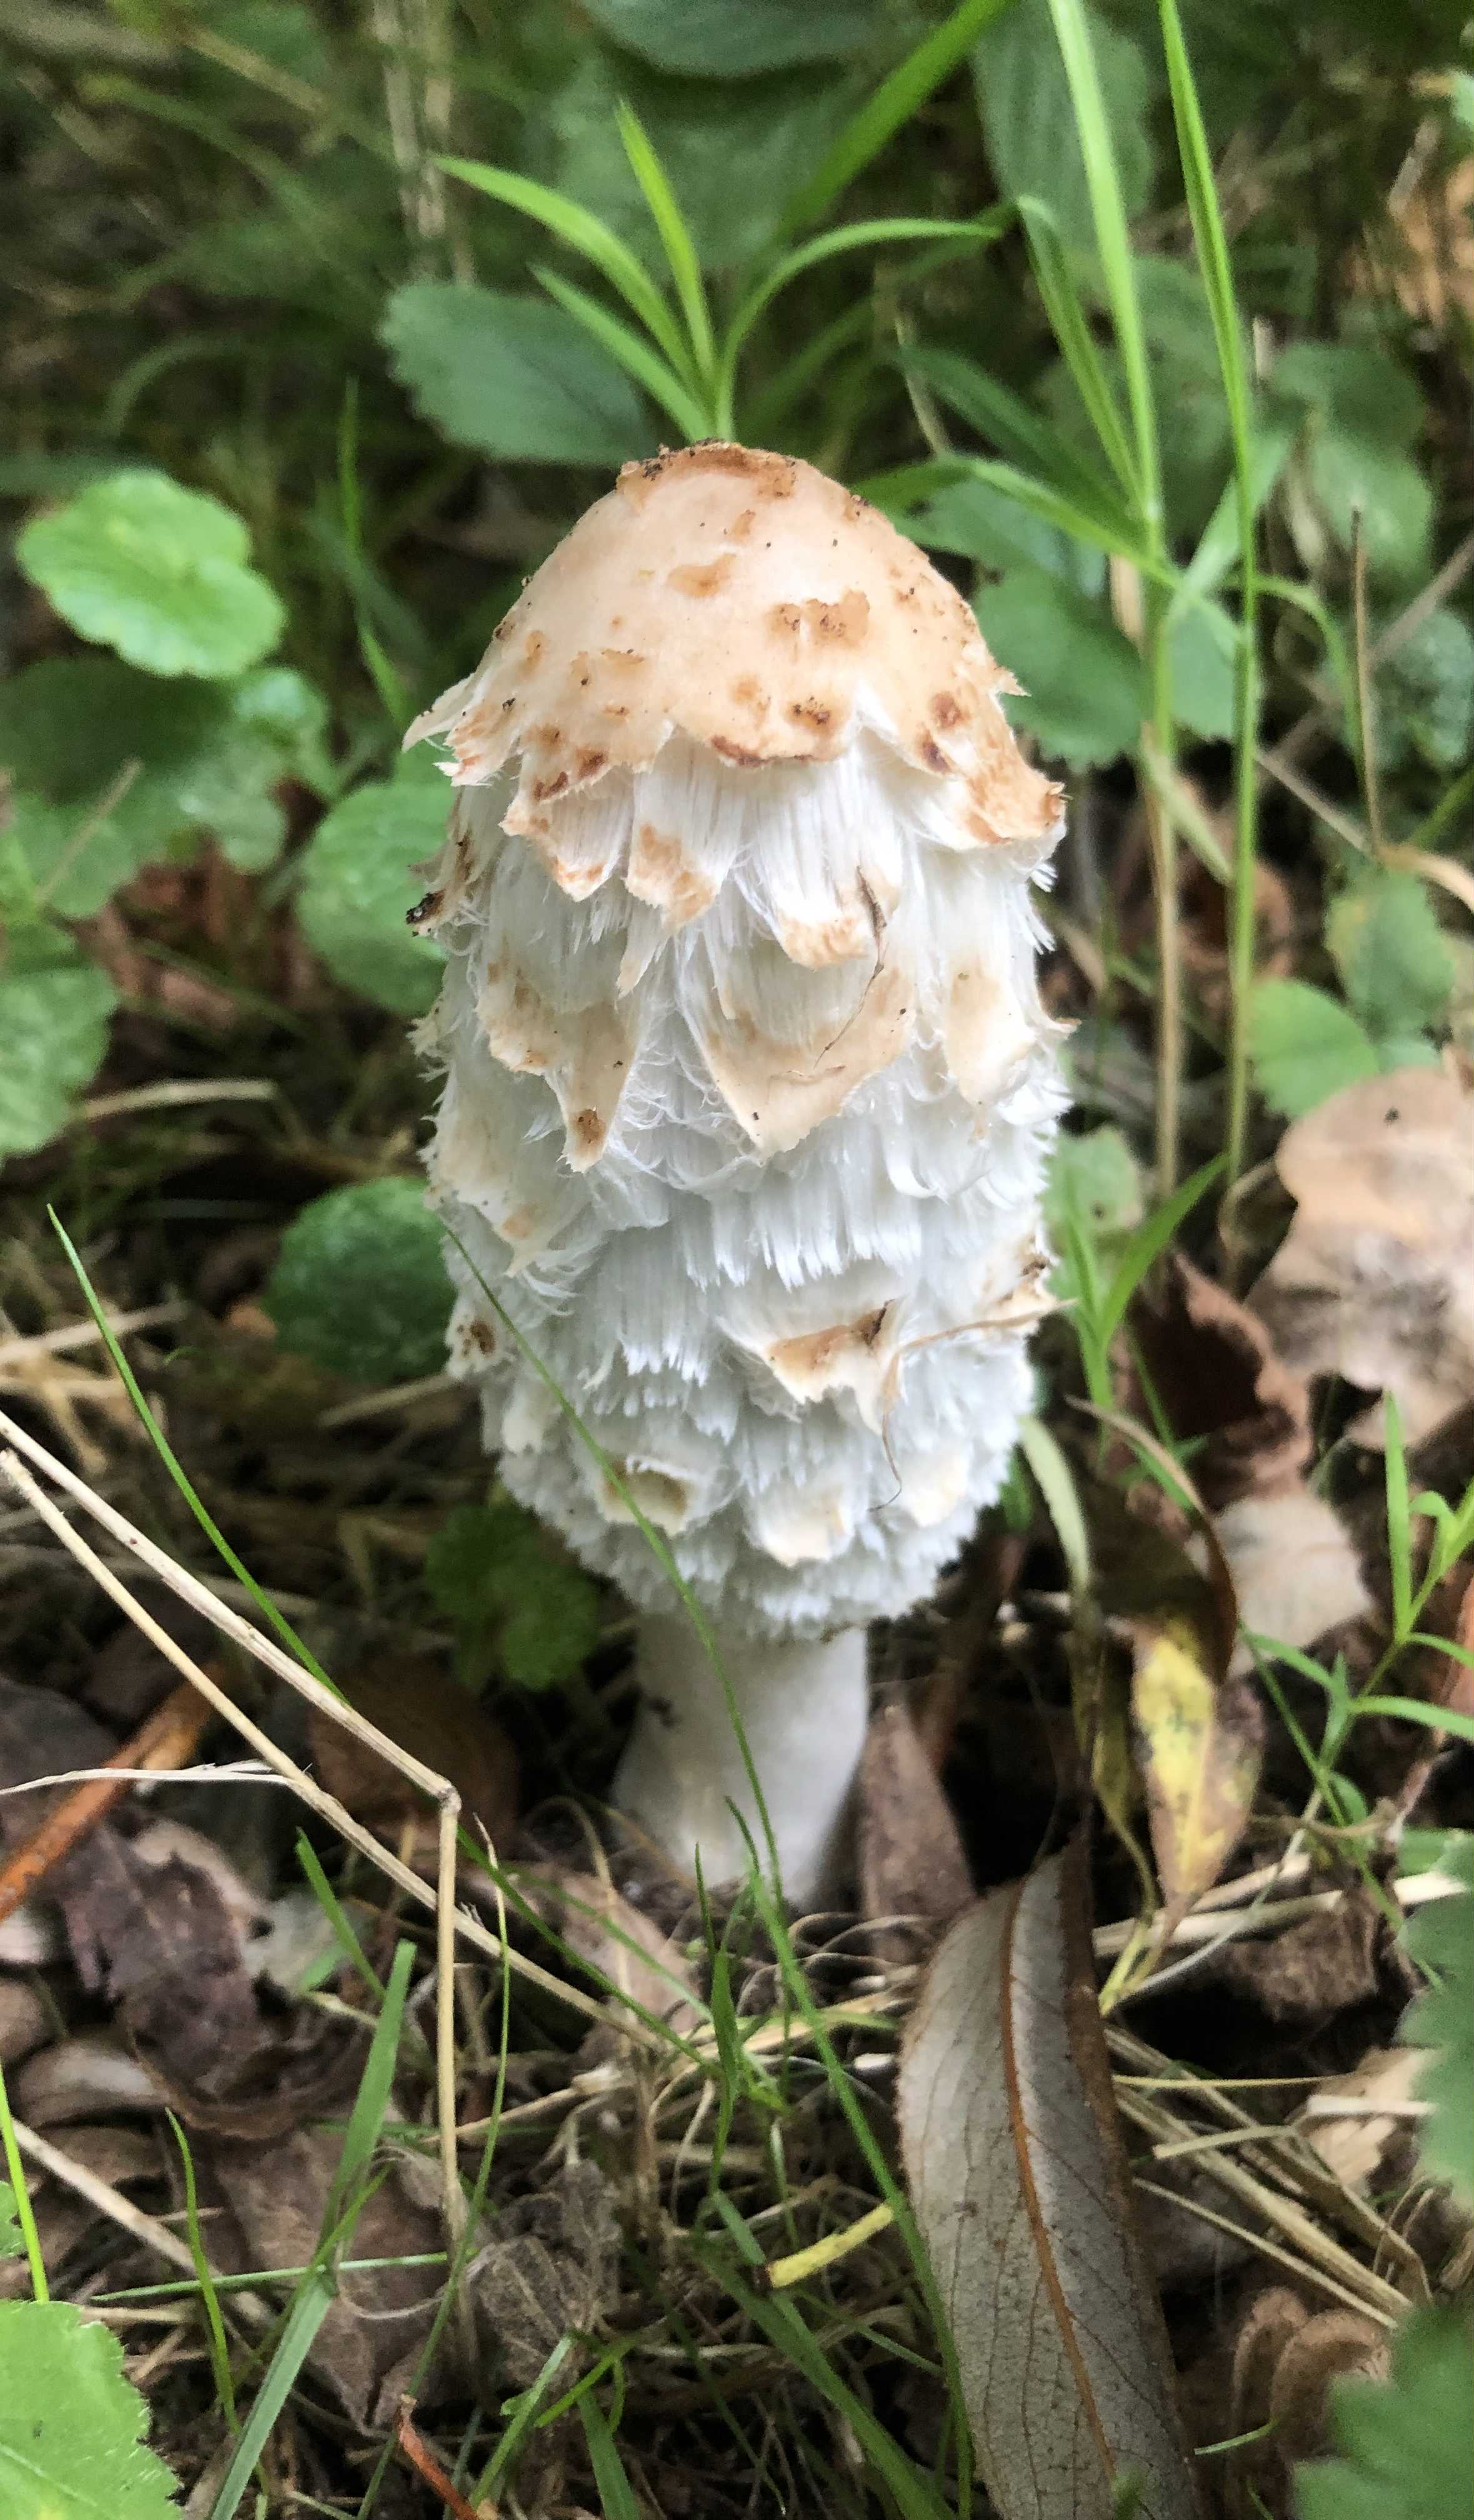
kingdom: Fungi
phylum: Basidiomycota
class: Agaricomycetes
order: Agaricales
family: Agaricaceae
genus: Coprinus
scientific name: Coprinus comatus
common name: stor parykhat
